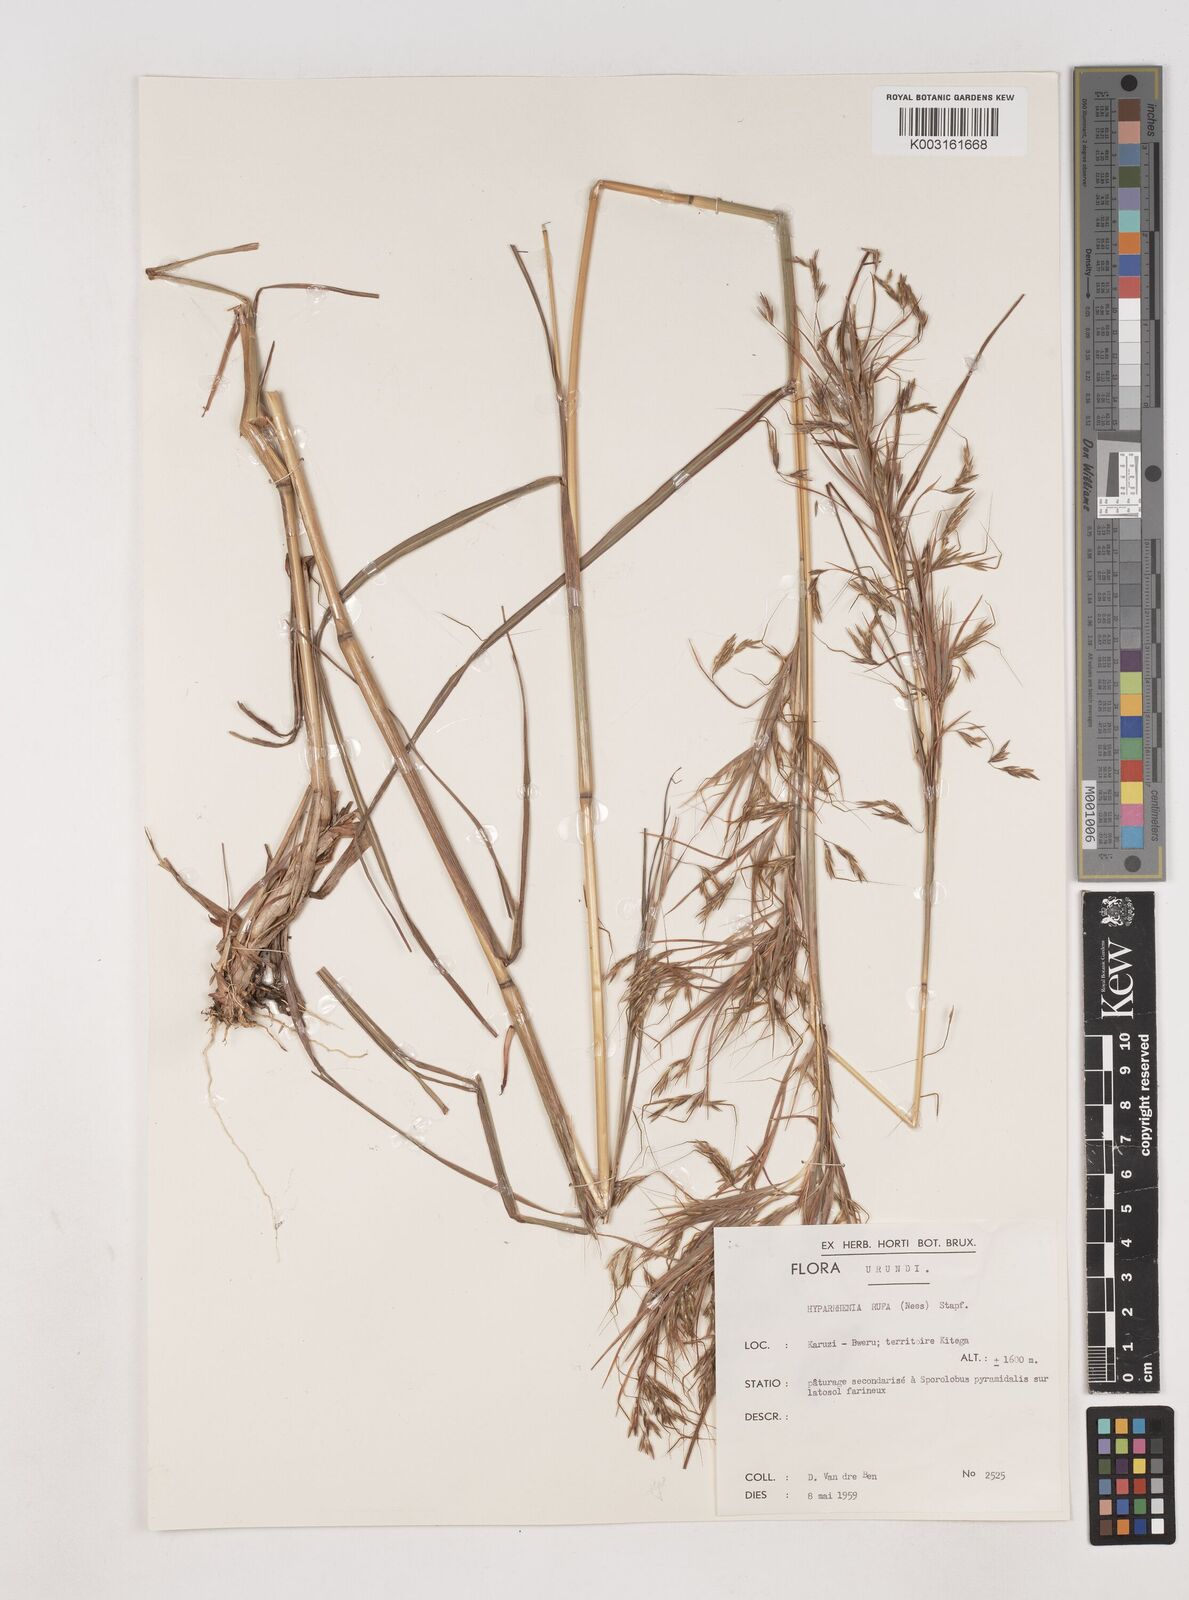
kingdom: Plantae
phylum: Tracheophyta
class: Liliopsida
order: Poales
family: Poaceae
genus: Hyparrhenia
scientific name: Hyparrhenia rufa
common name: Jaraguagrass
